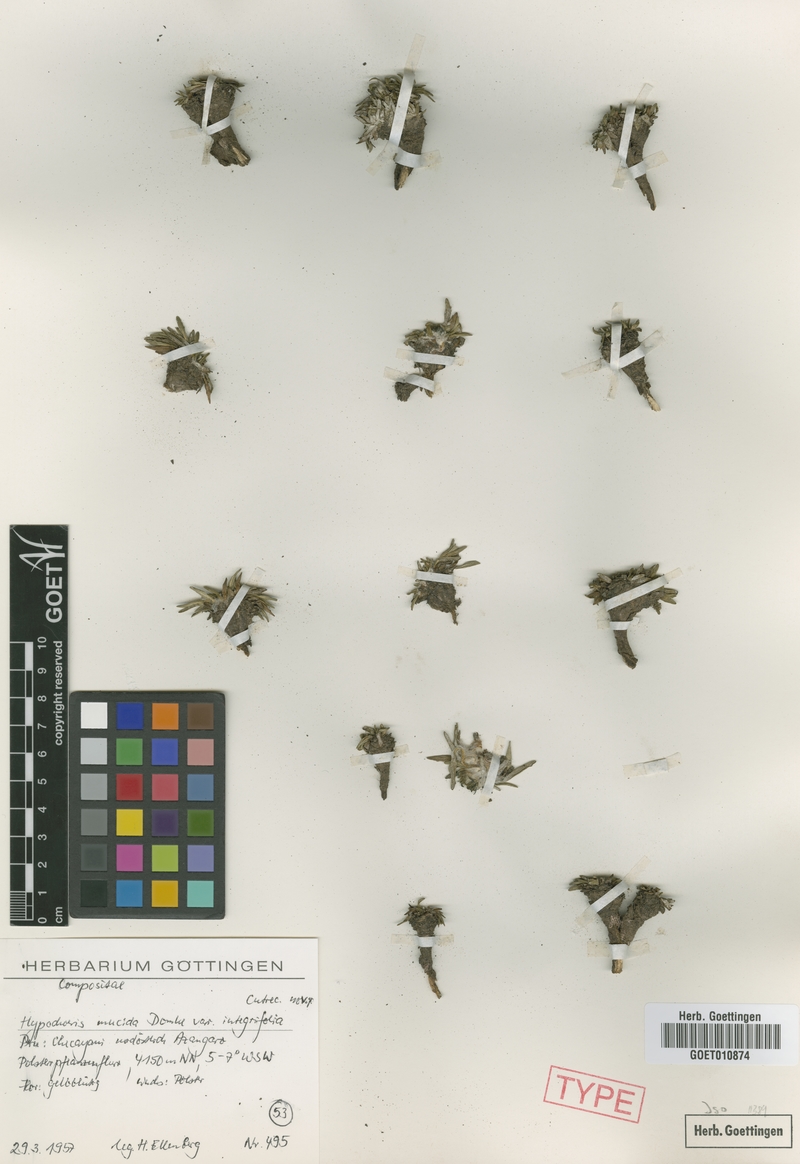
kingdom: Plantae
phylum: Tracheophyta
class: Magnoliopsida
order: Asterales
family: Asteraceae
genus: Hypochaeris
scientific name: Hypochaeris mucida
